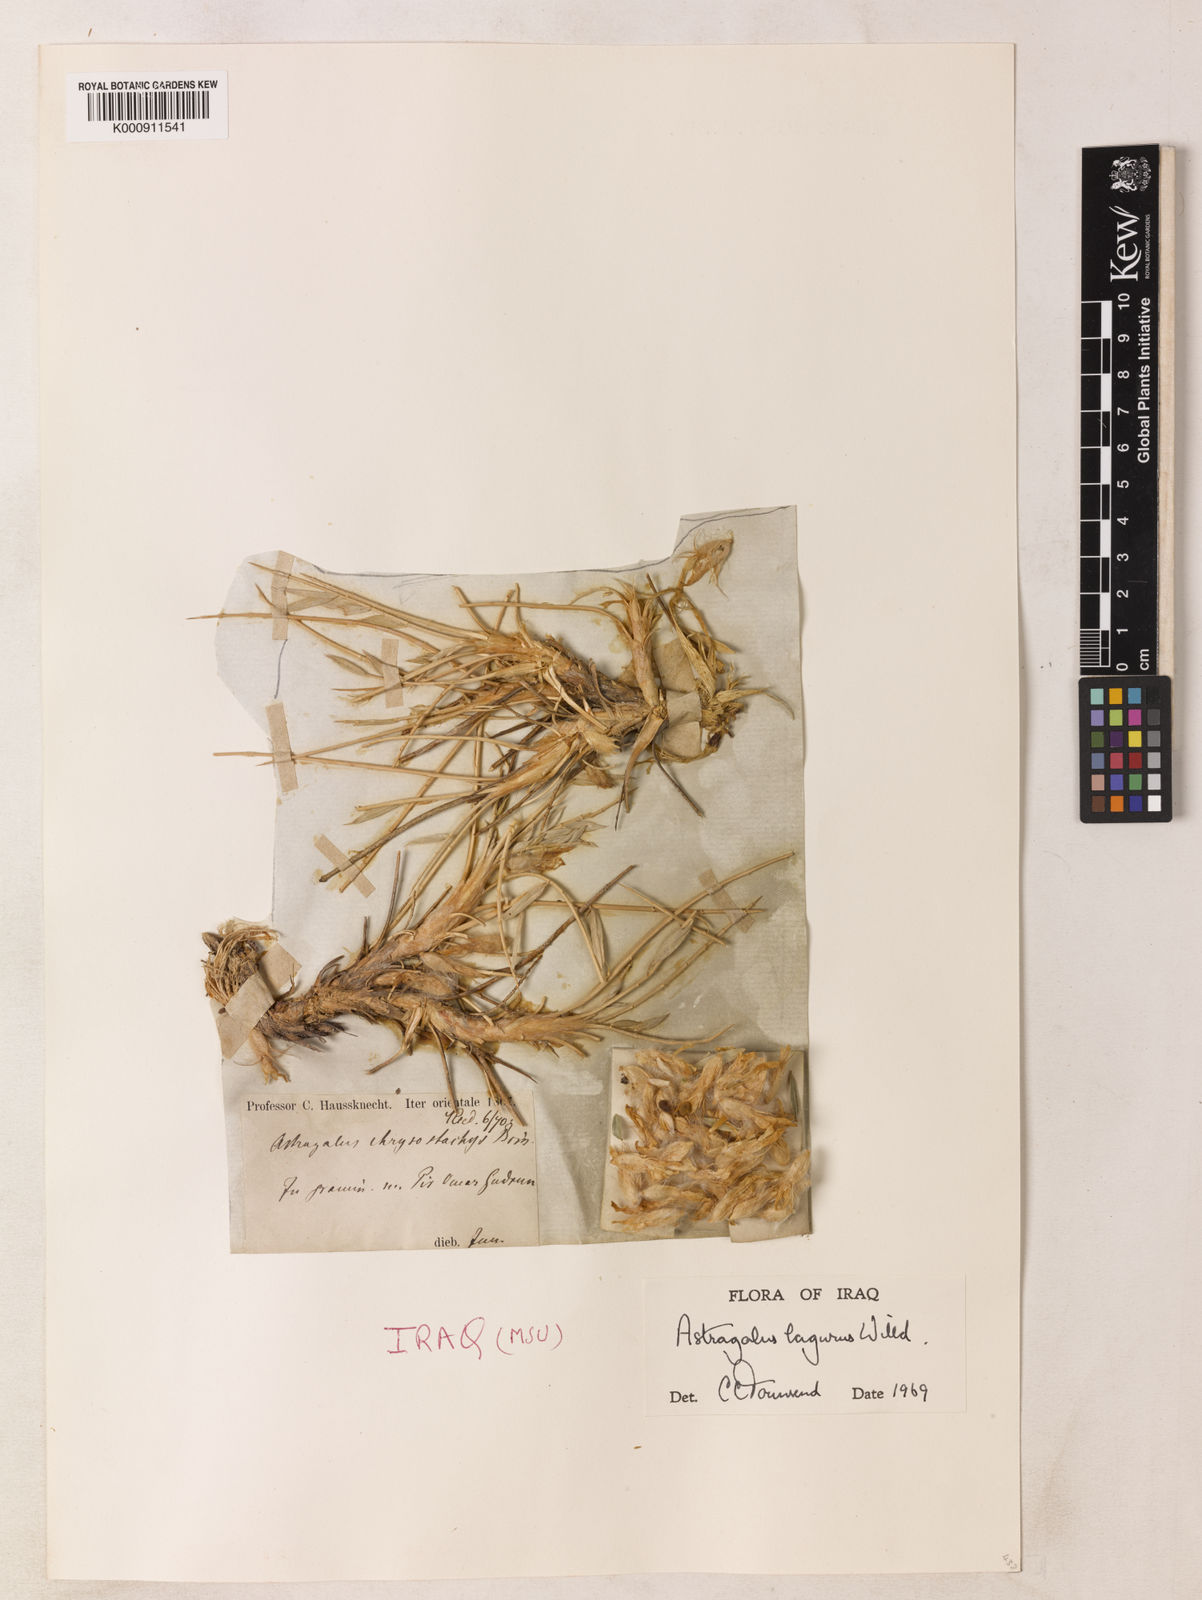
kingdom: Plantae
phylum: Tracheophyta
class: Magnoliopsida
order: Fabales
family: Fabaceae
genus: Astragalus
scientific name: Astragalus nervistipulus
